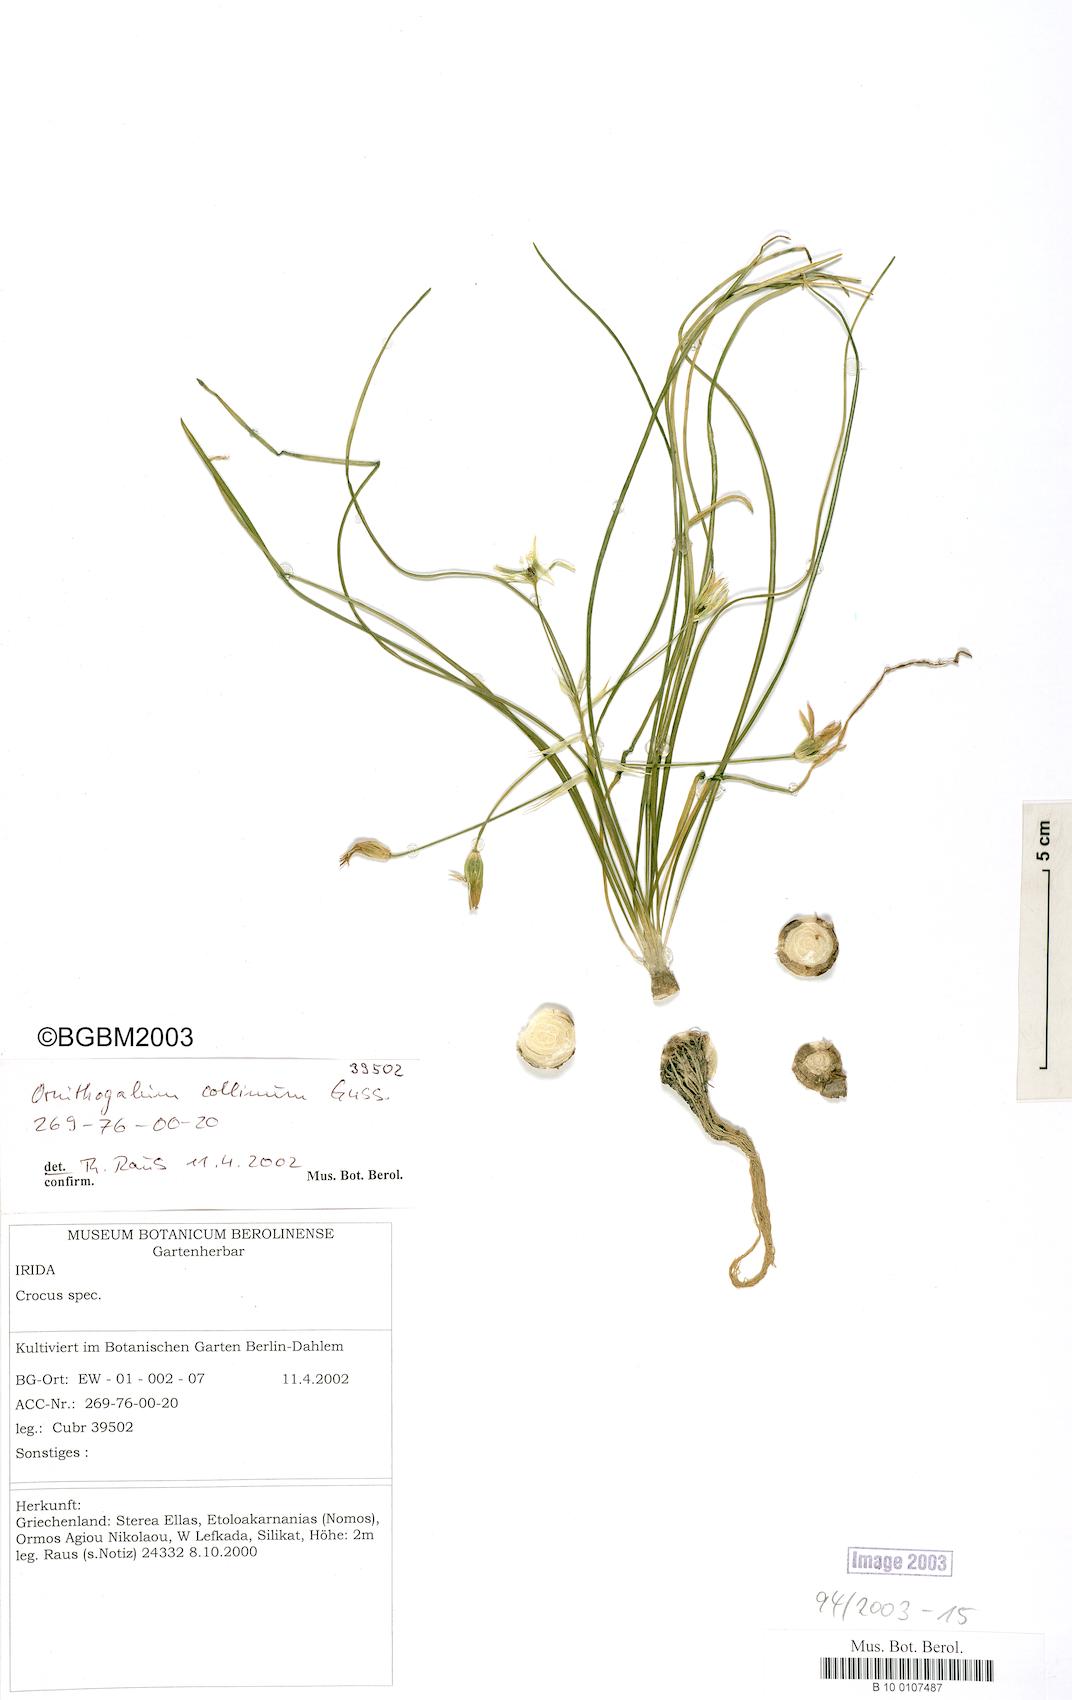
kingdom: Plantae
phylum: Tracheophyta
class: Liliopsida
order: Asparagales
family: Asparagaceae
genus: Ornithogalum
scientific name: Ornithogalum collinum
